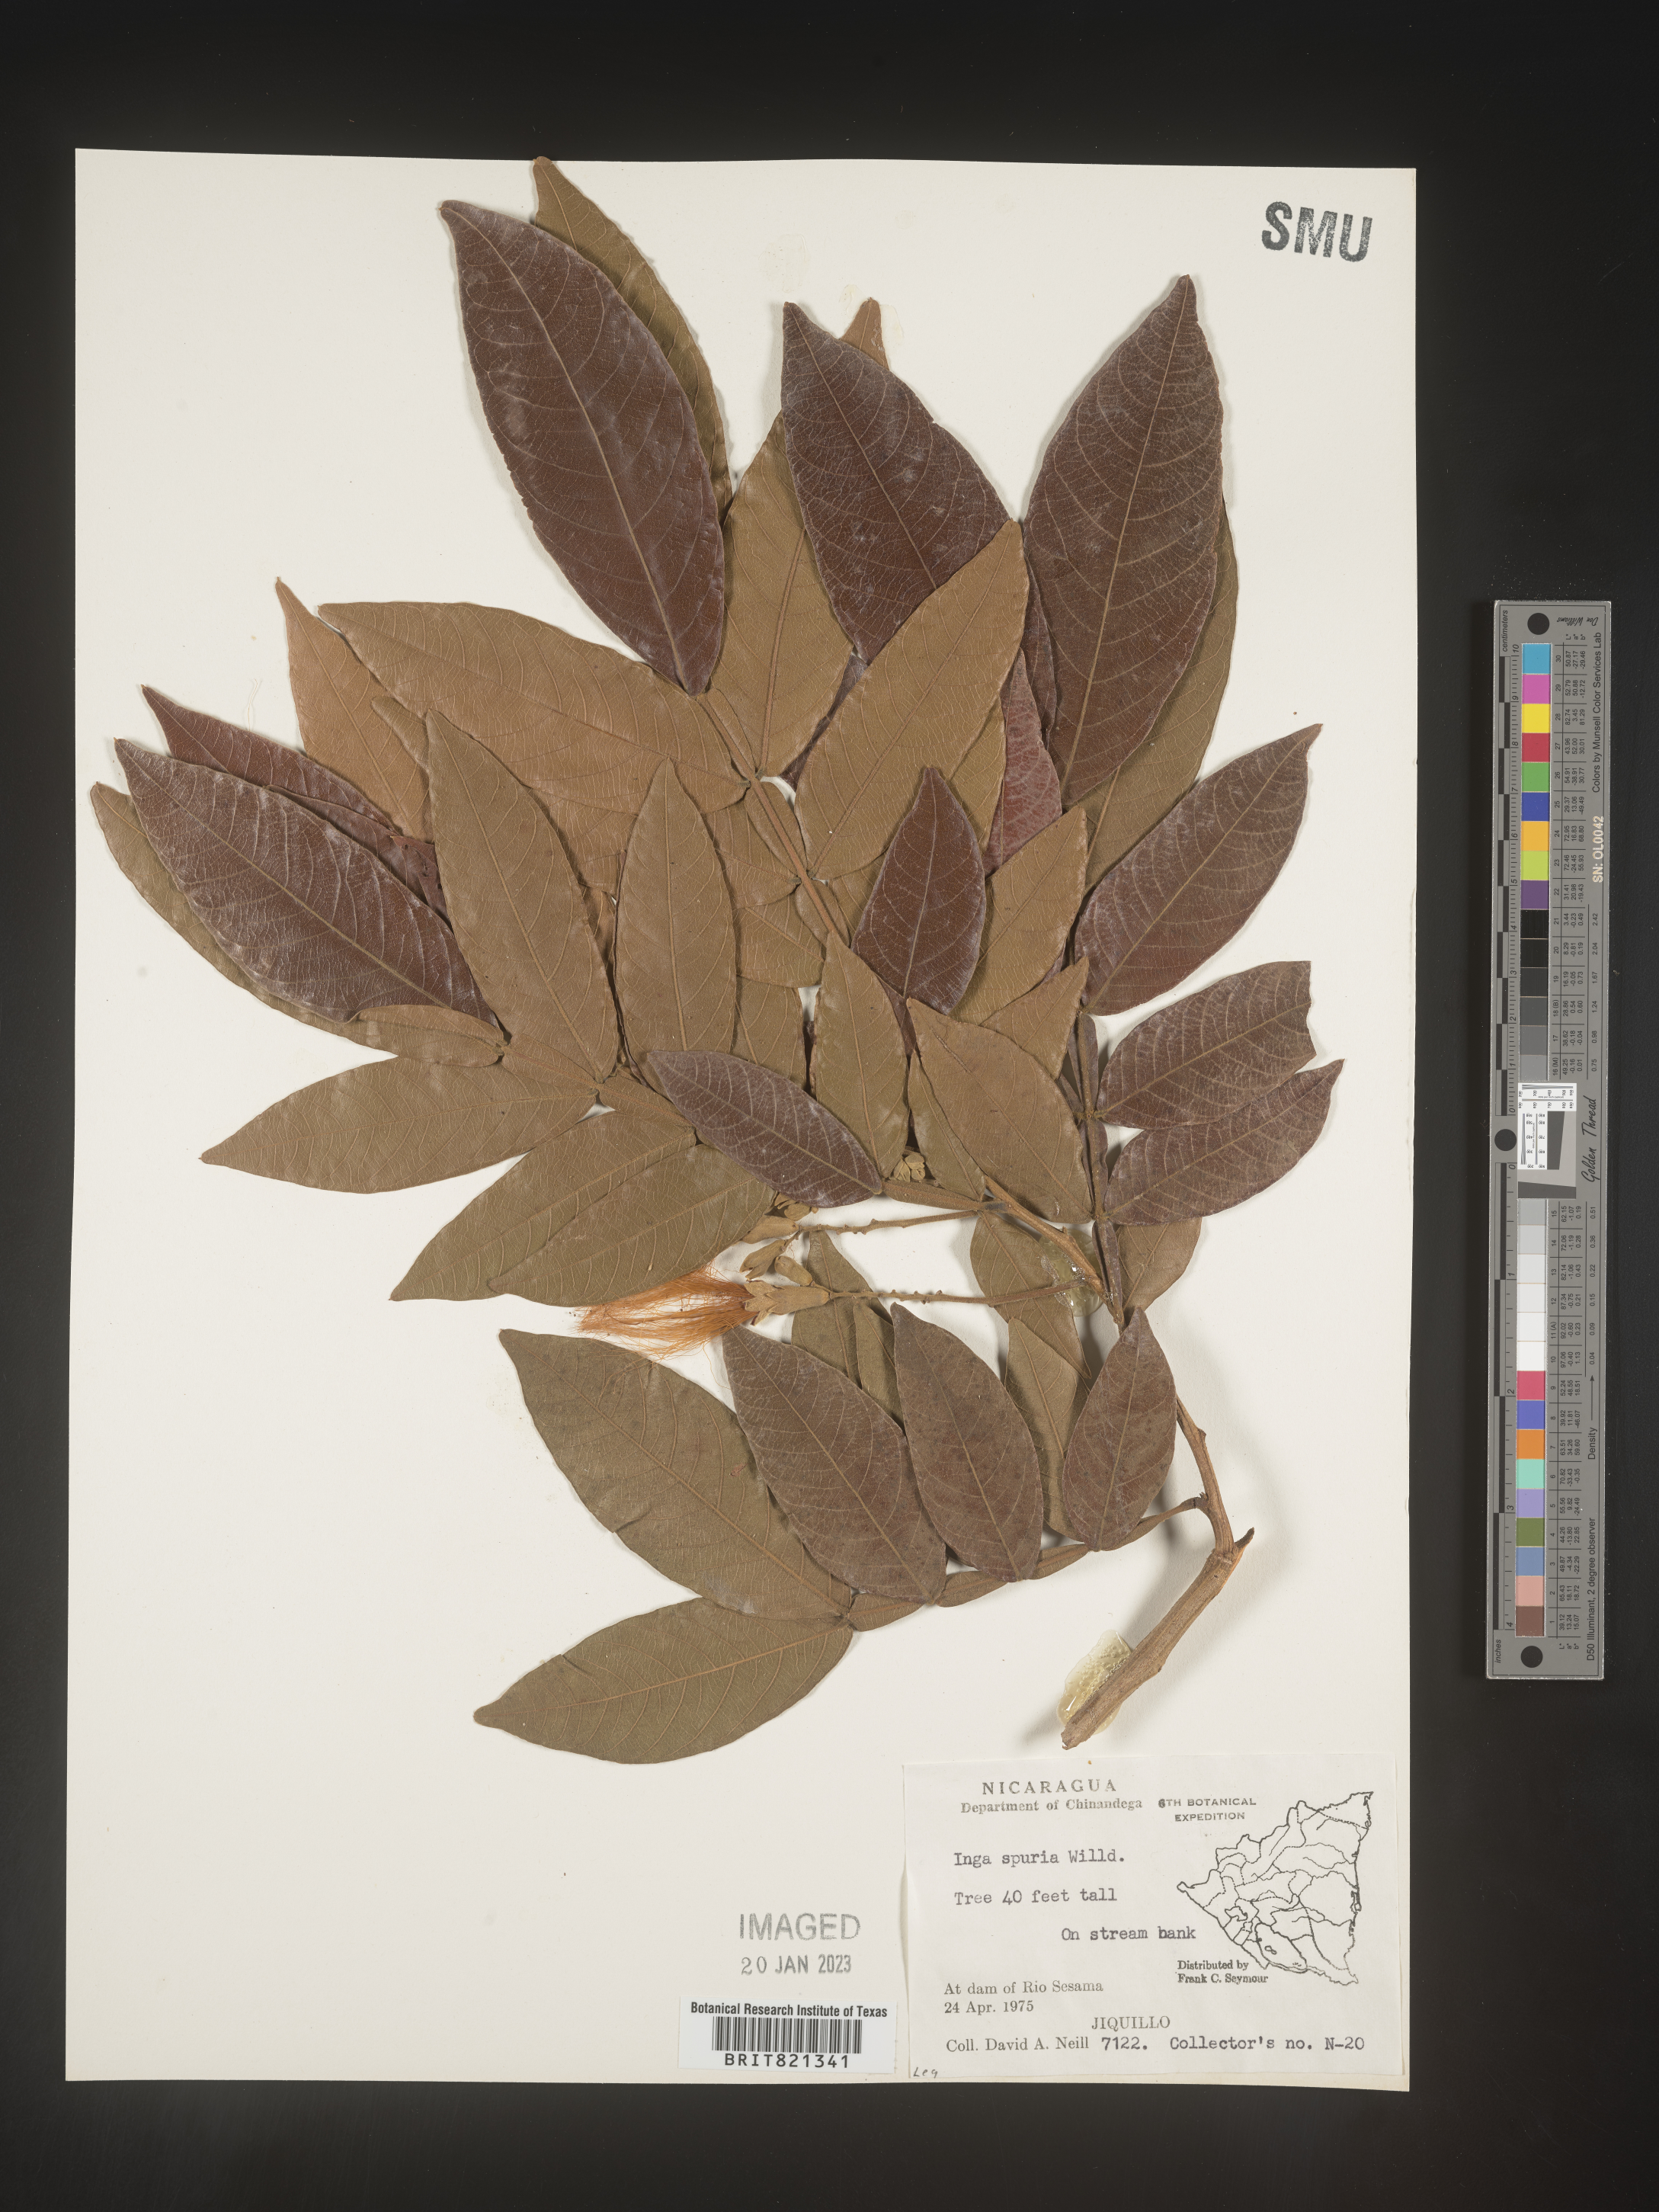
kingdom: Plantae
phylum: Tracheophyta
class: Magnoliopsida
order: Fabales
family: Fabaceae
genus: Inga
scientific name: Inga
